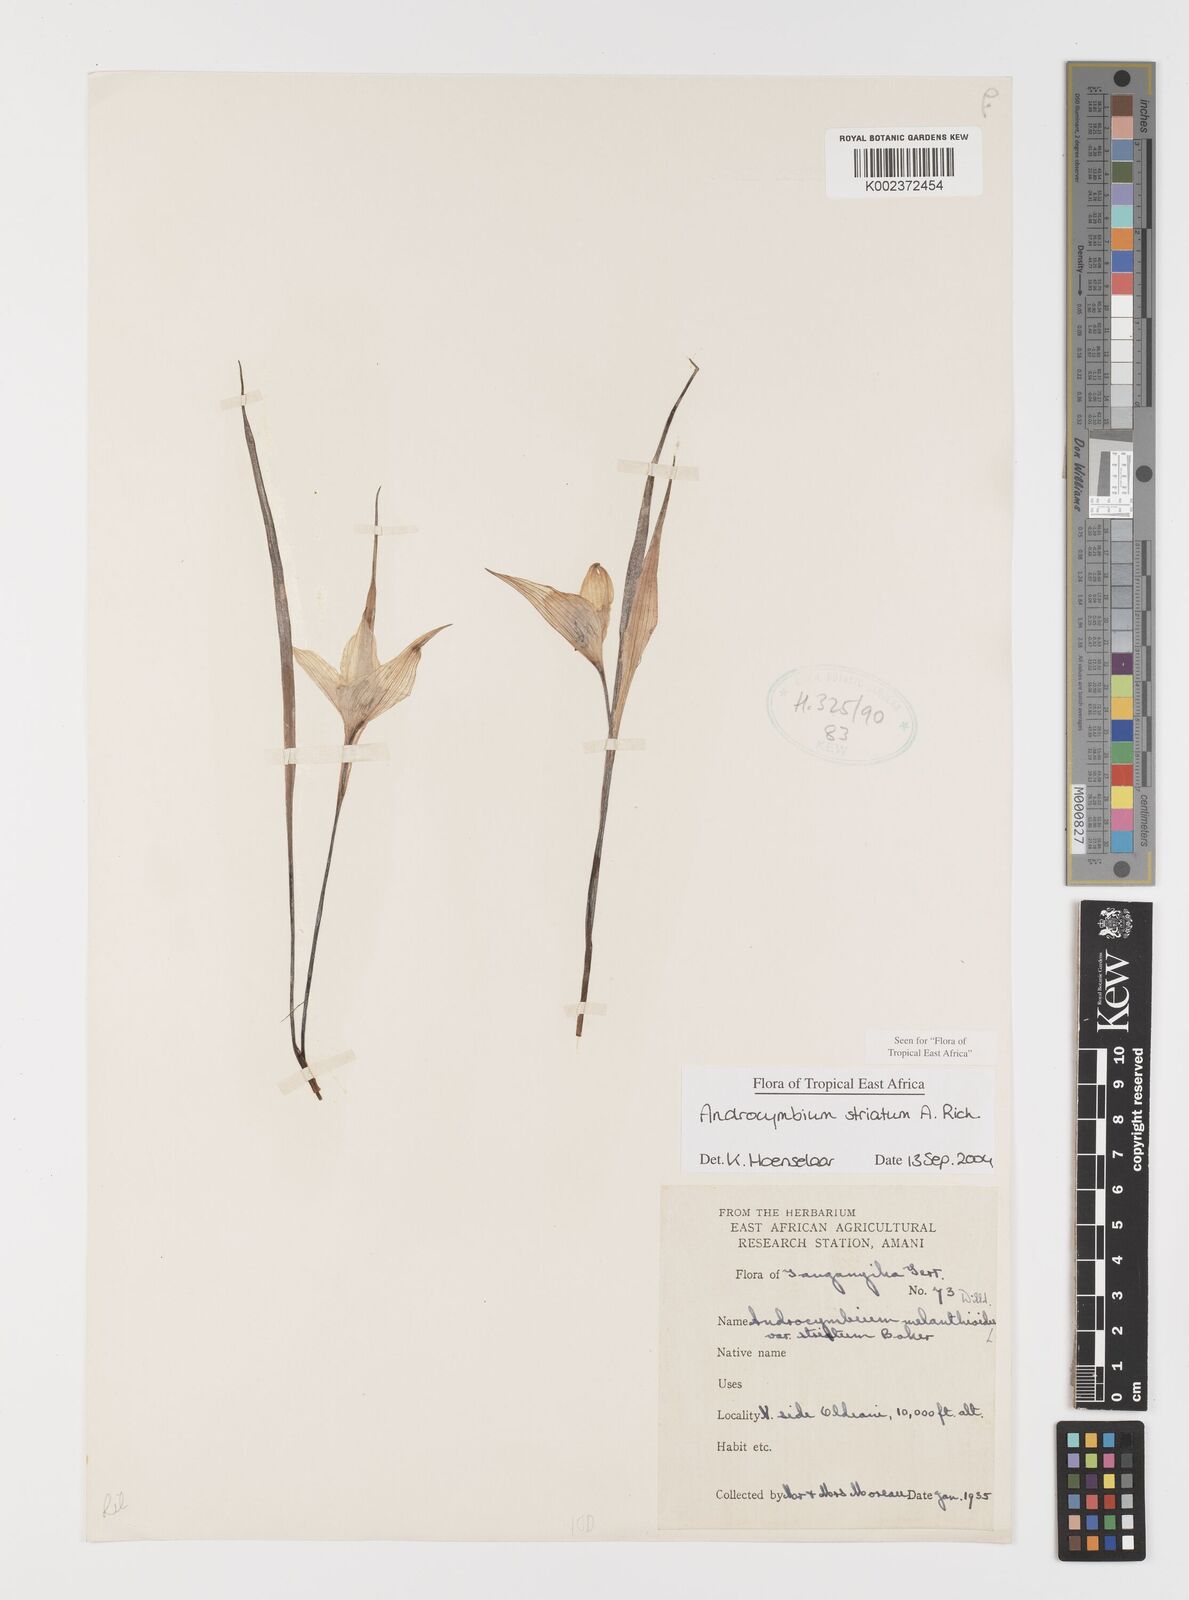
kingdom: Plantae
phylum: Tracheophyta
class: Liliopsida
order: Liliales
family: Colchicaceae
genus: Colchicum
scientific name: Colchicum striatum
